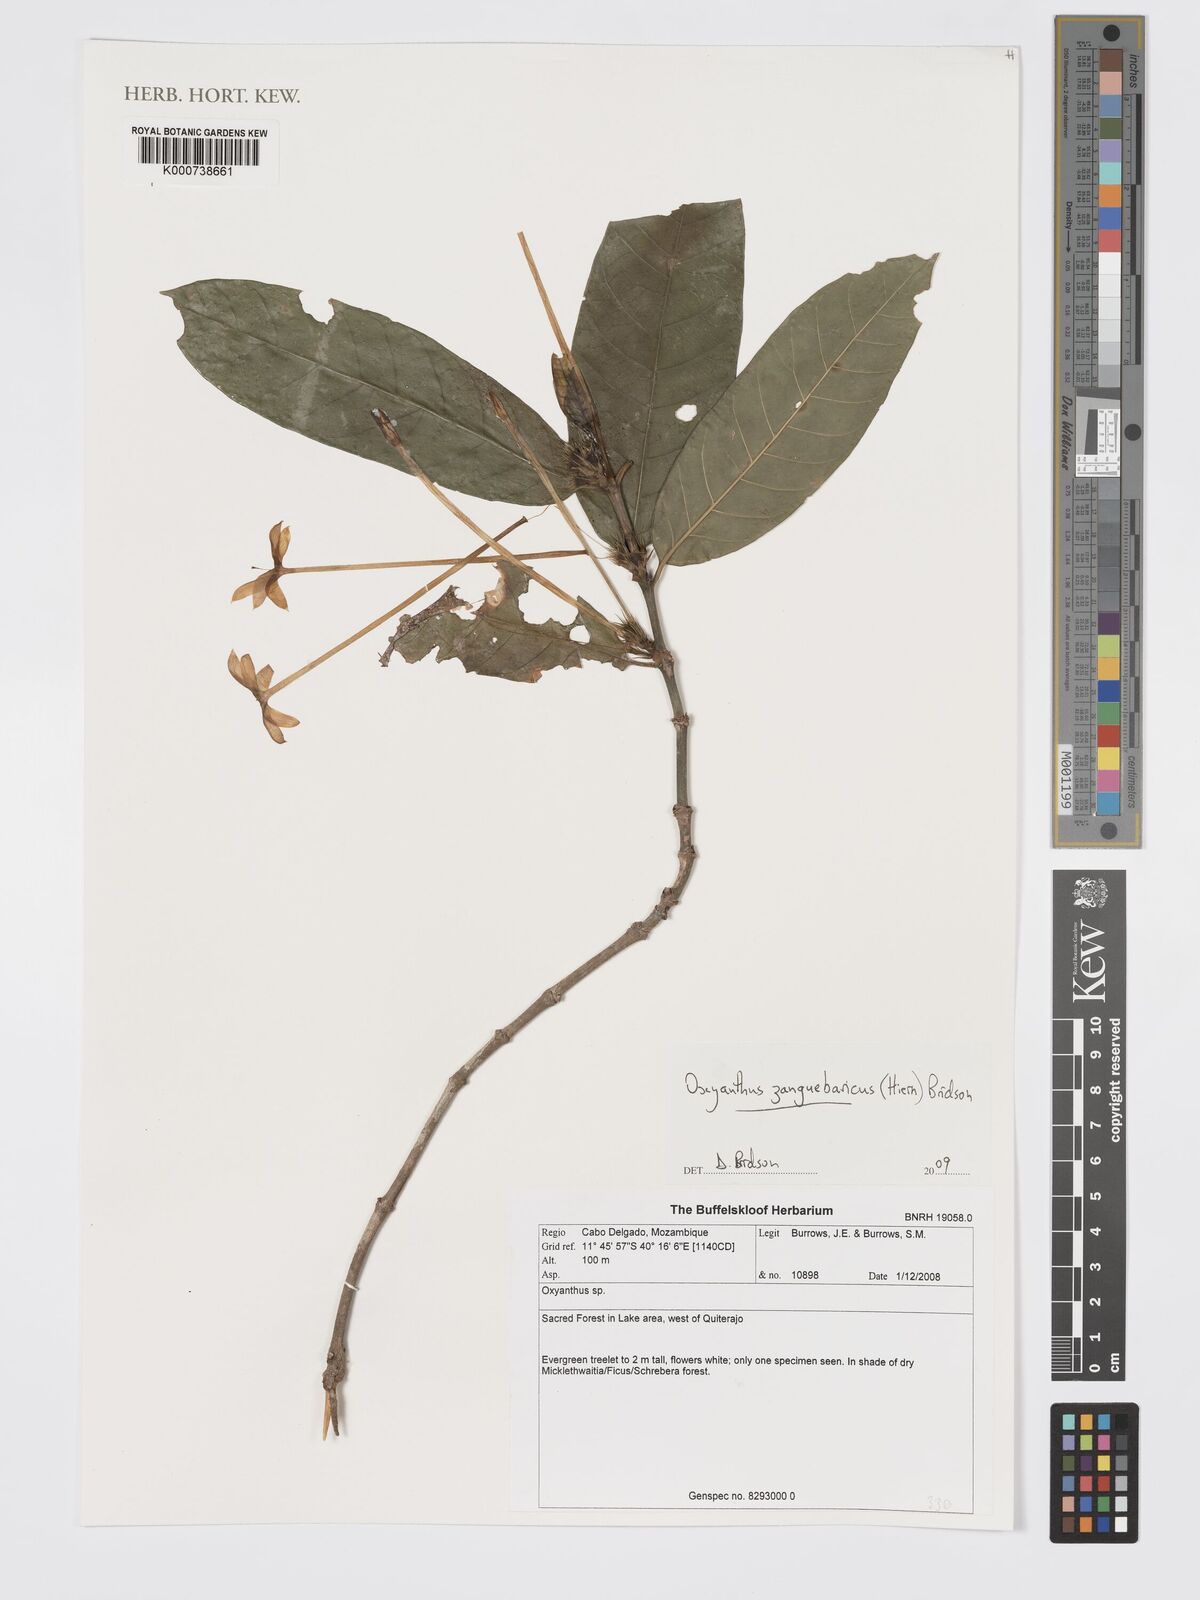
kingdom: Plantae
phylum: Tracheophyta
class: Magnoliopsida
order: Gentianales
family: Rubiaceae
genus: Oxyanthus
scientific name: Oxyanthus zanguebaricus
